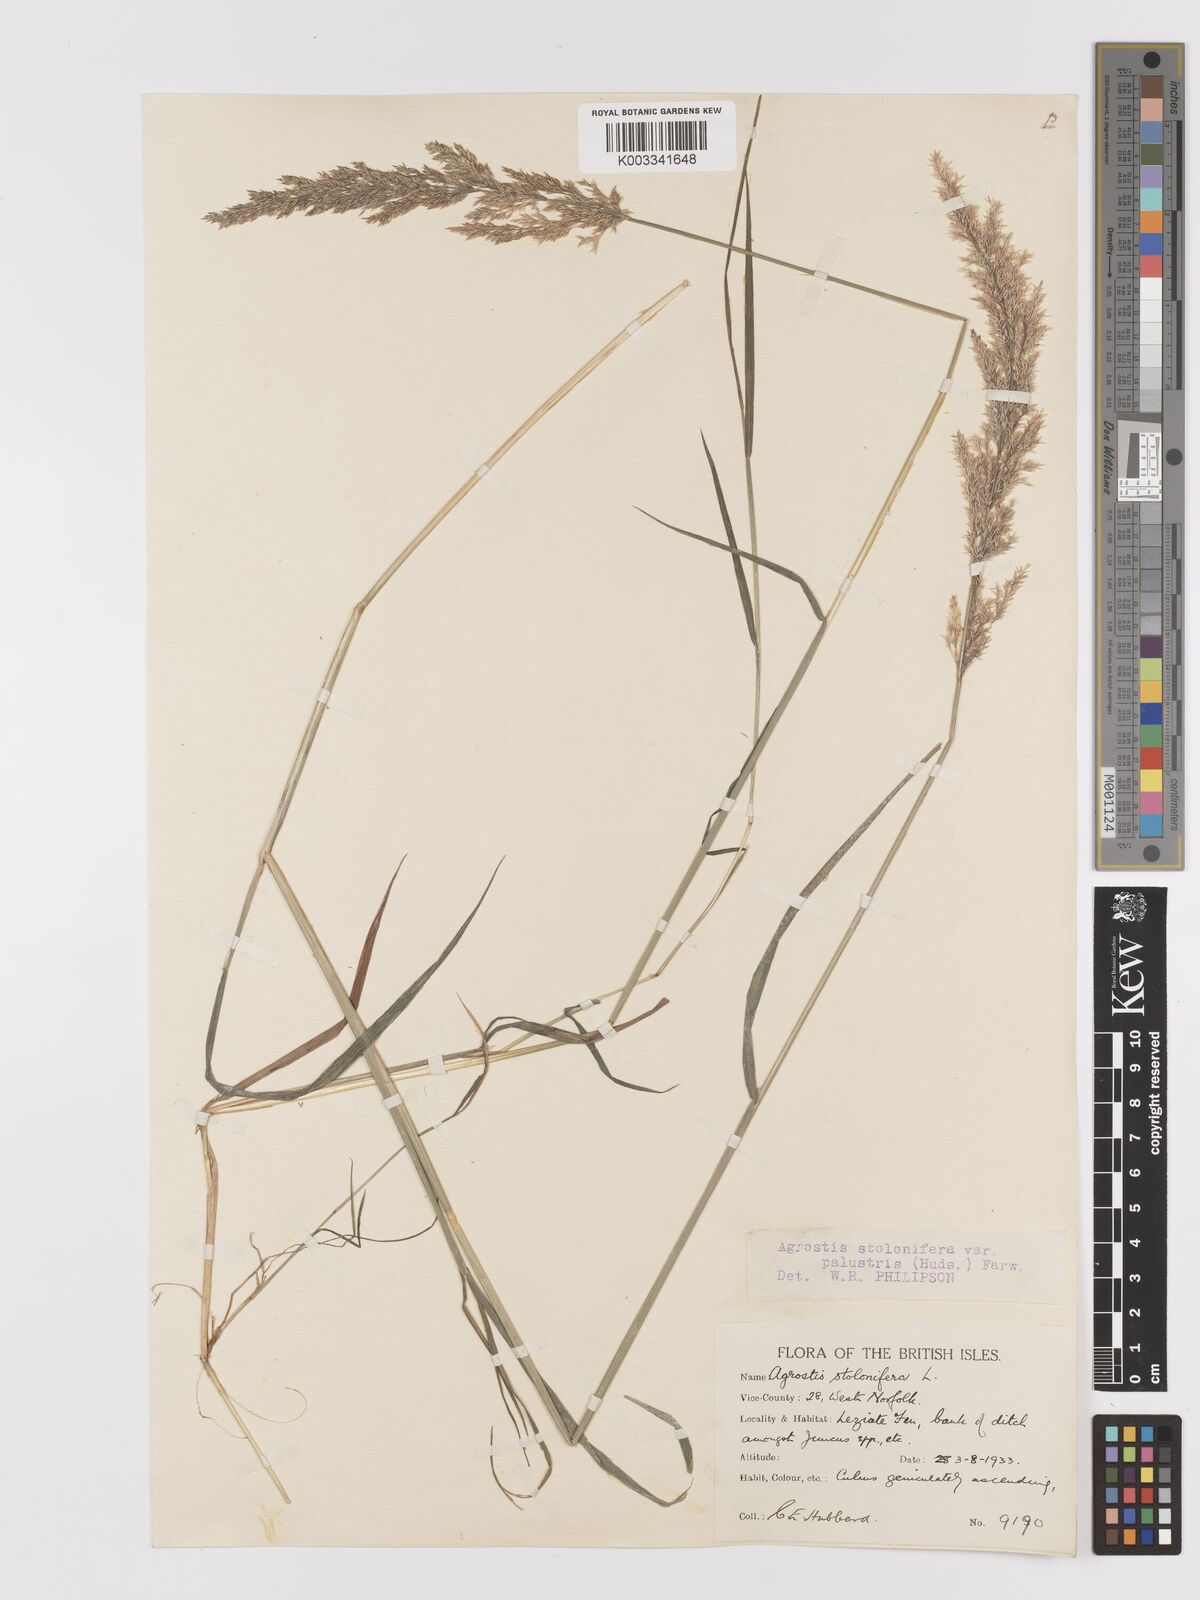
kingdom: Plantae
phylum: Tracheophyta
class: Liliopsida
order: Poales
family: Poaceae
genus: Agrostis
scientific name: Agrostis stolonifera
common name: Creeping bentgrass
